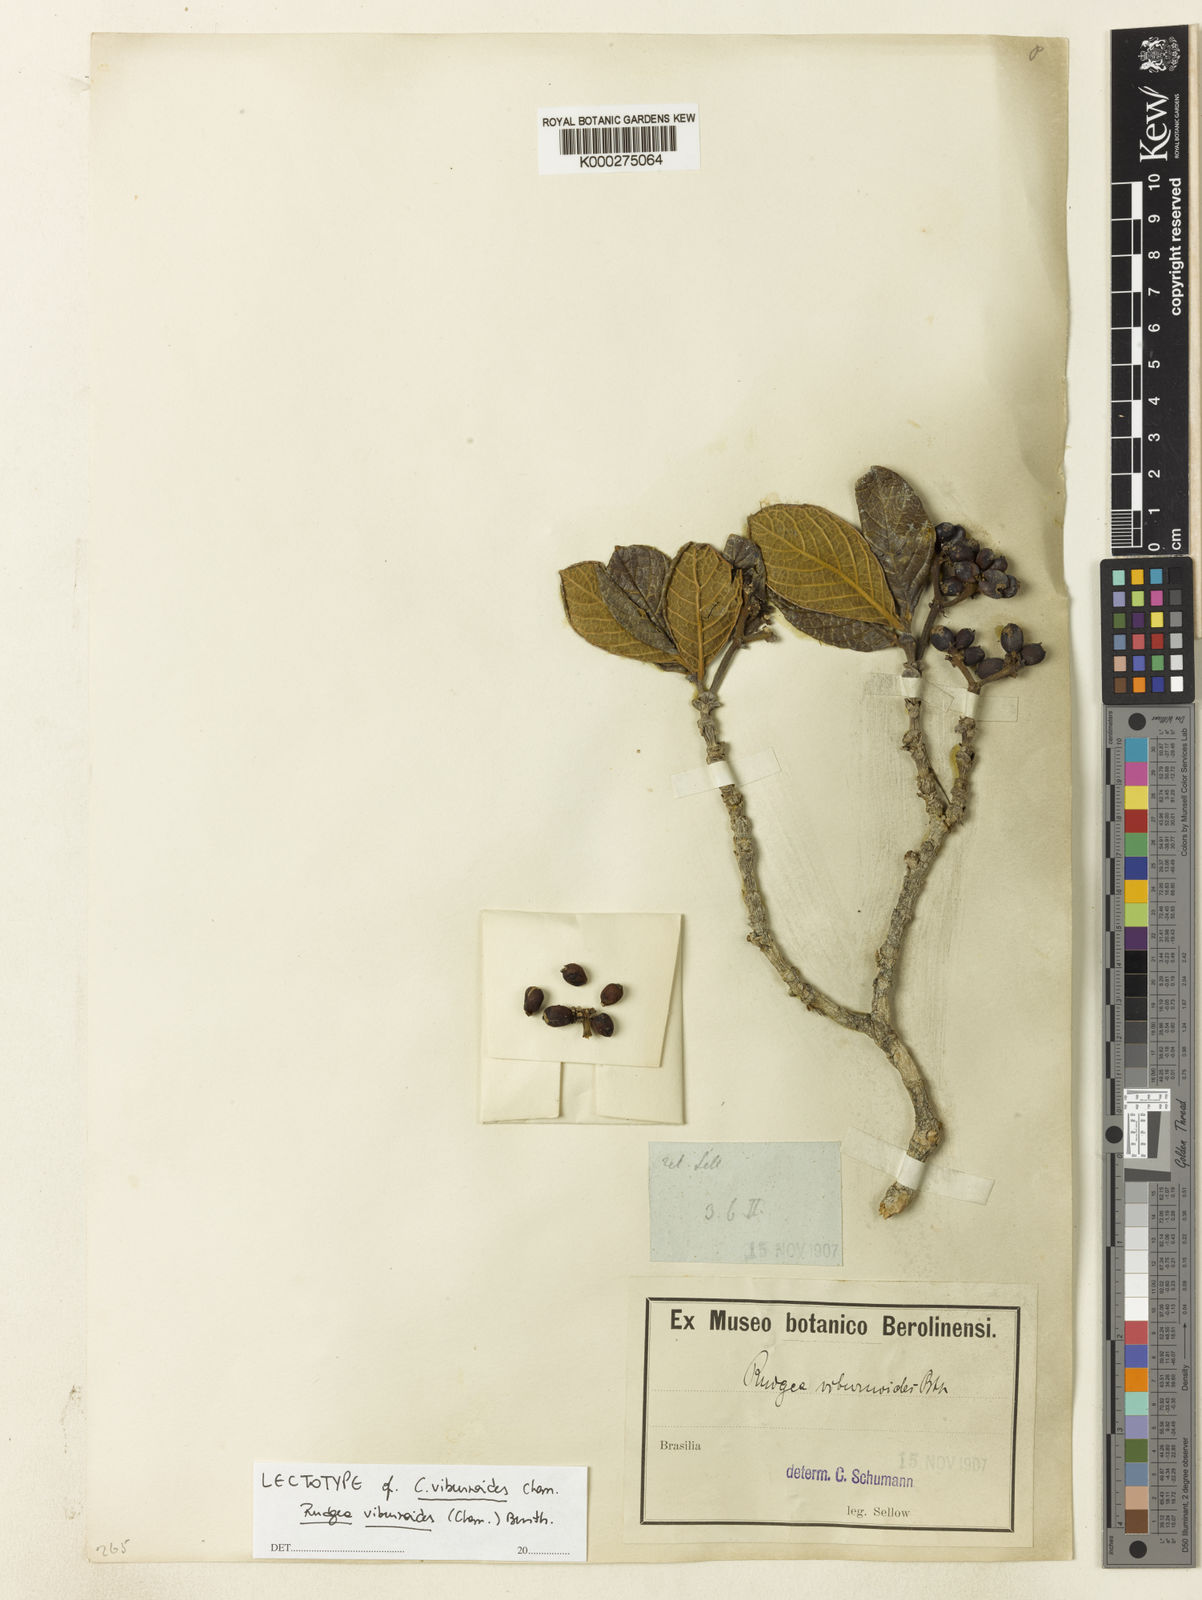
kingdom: Plantae
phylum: Tracheophyta
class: Magnoliopsida
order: Gentianales
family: Rubiaceae
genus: Rudgea
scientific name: Rudgea viburnoides
